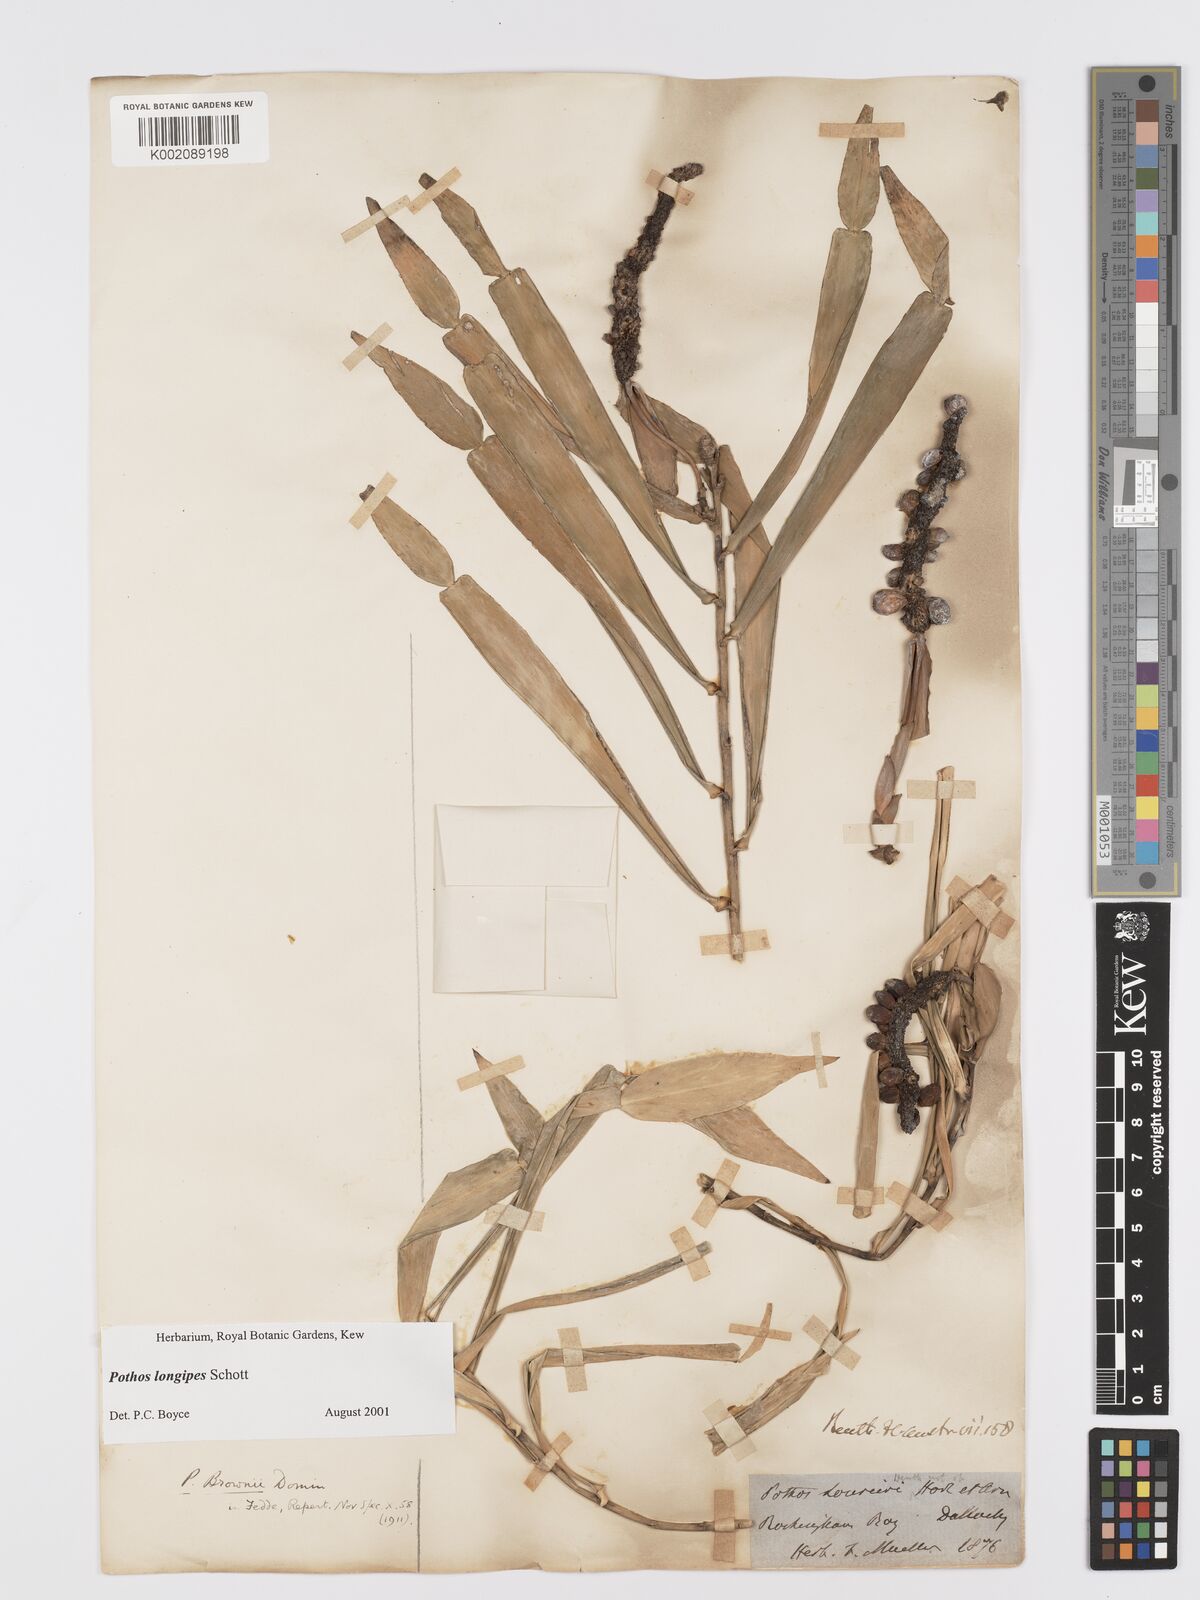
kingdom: Plantae
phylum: Tracheophyta
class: Liliopsida
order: Alismatales
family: Araceae
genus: Pothos
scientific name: Pothos longipes
